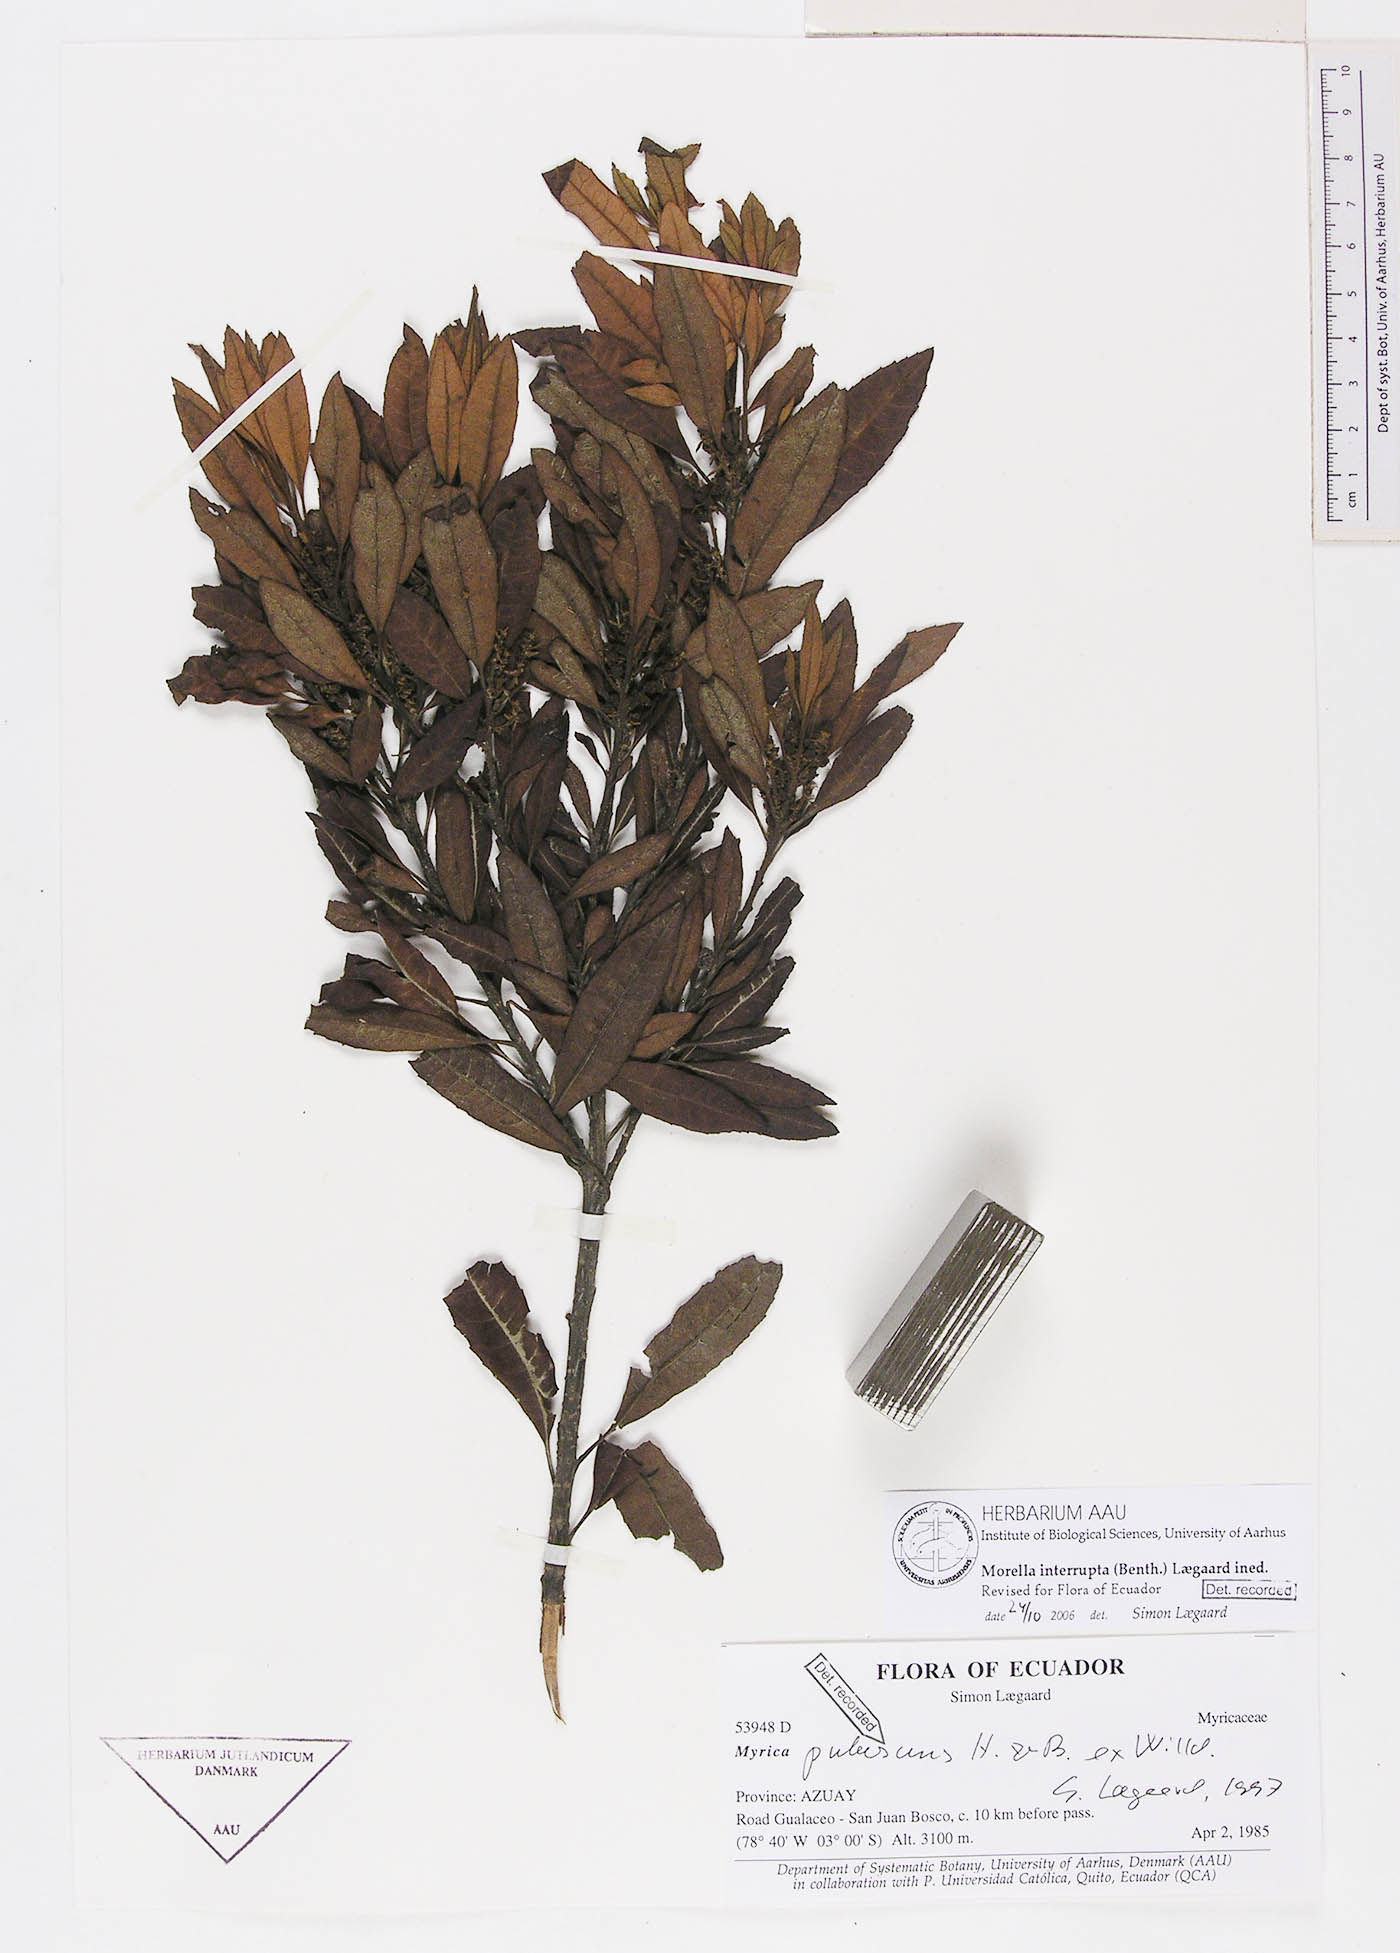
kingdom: Plantae
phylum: Tracheophyta
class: Magnoliopsida
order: Fagales
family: Myricaceae
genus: Morella
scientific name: Morella interrupta
